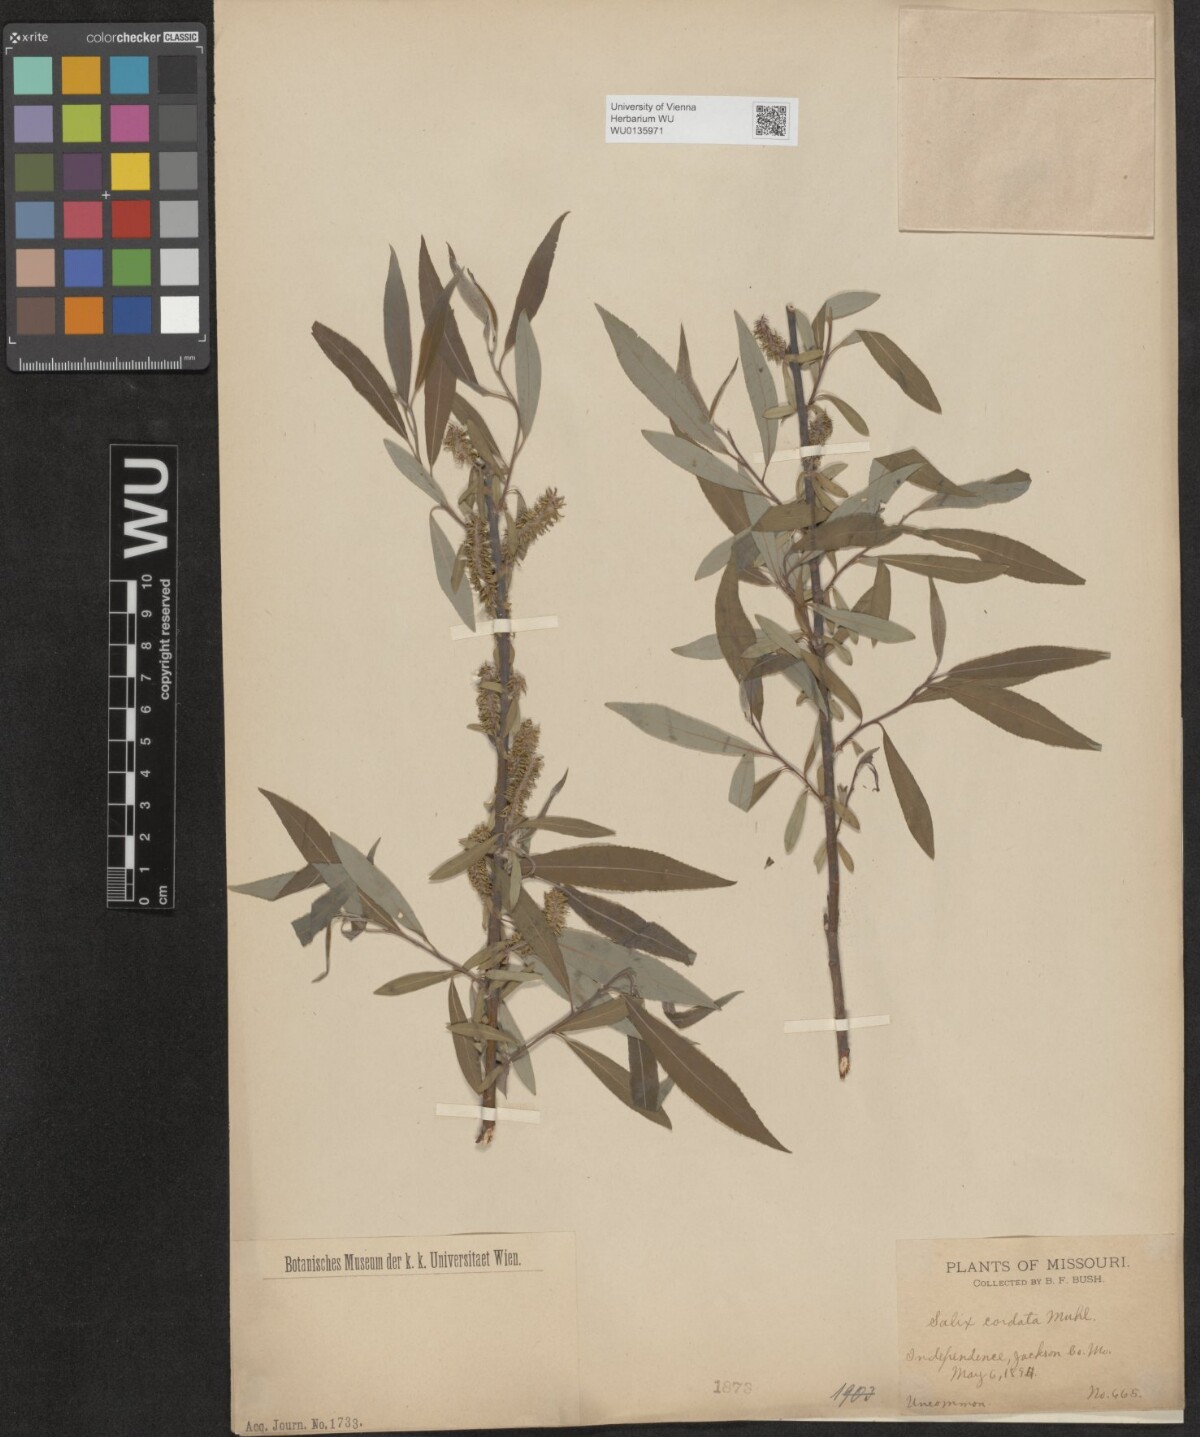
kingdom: Plantae
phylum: Tracheophyta
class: Magnoliopsida
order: Malpighiales
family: Salicaceae
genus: Salix
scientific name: Salix cordata
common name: Heart-leaf willow
